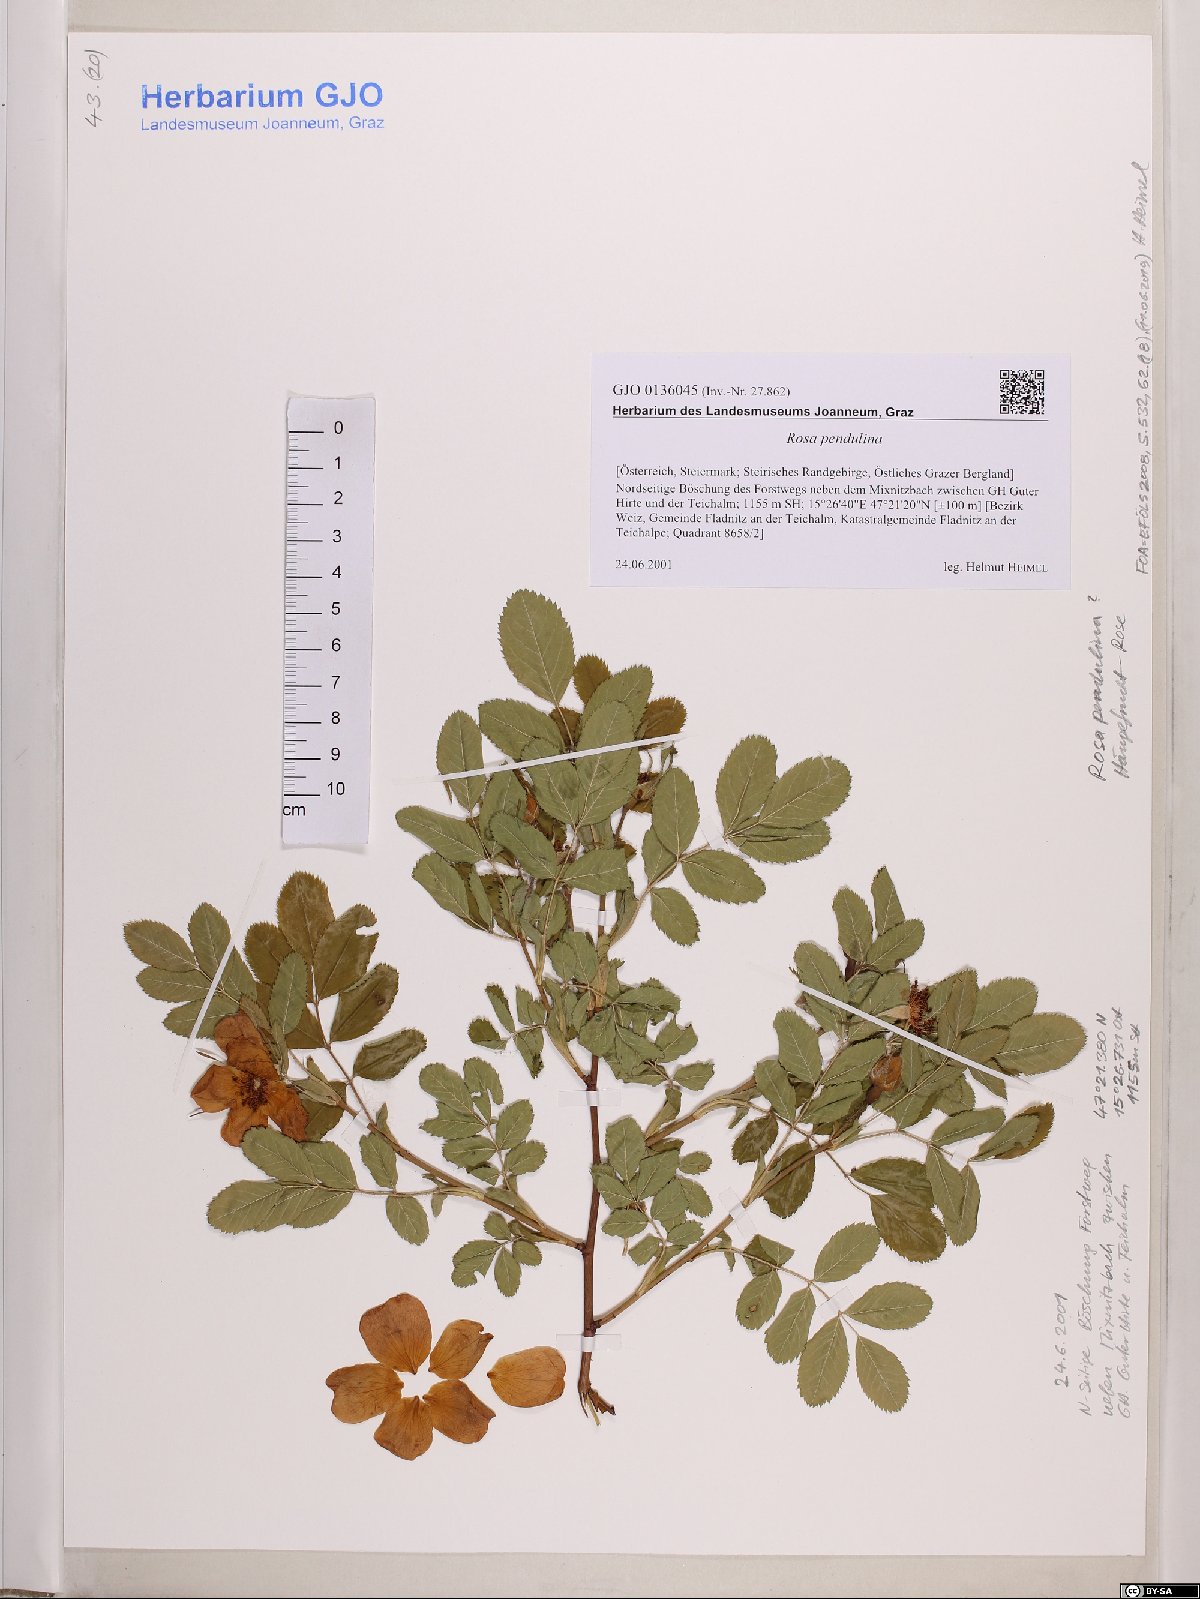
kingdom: Plantae
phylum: Tracheophyta
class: Magnoliopsida
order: Rosales
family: Rosaceae
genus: Rosa
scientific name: Rosa pendulina
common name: Alpine rose
